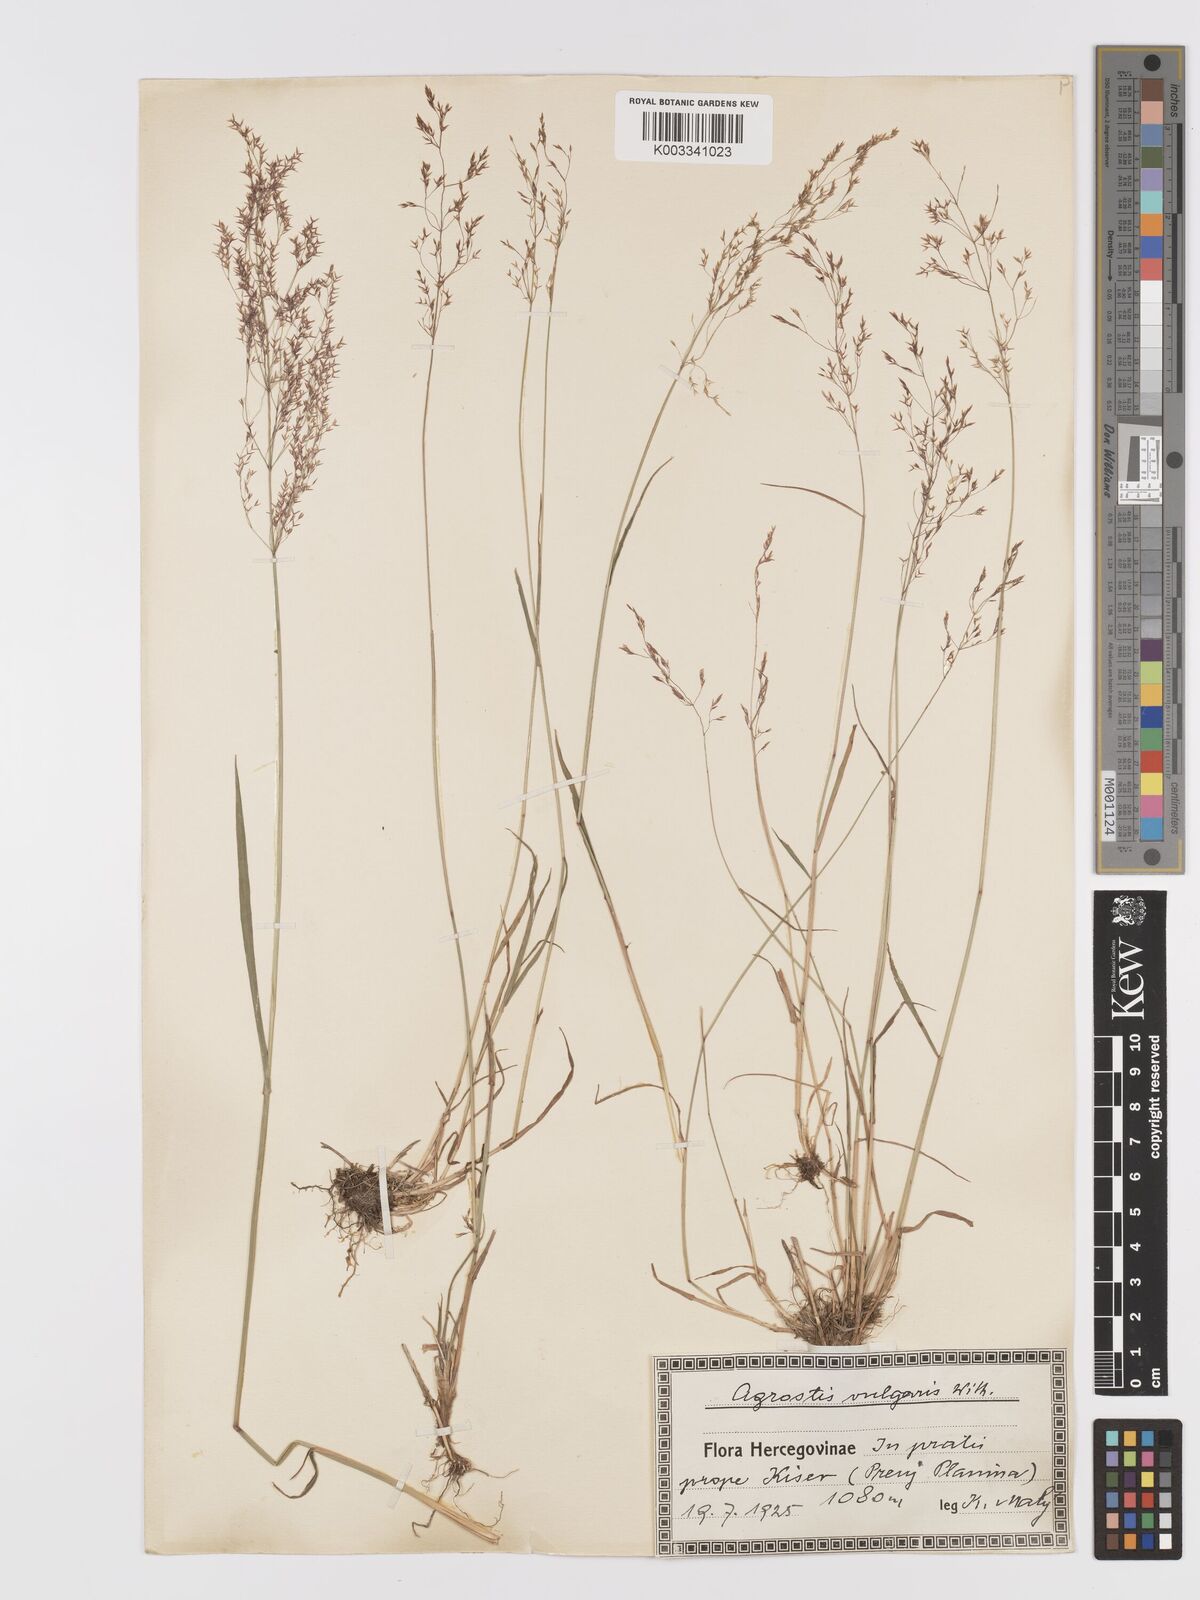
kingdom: Plantae
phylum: Tracheophyta
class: Liliopsida
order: Poales
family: Poaceae
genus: Agrostis
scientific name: Agrostis capillaris
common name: Colonial bentgrass
